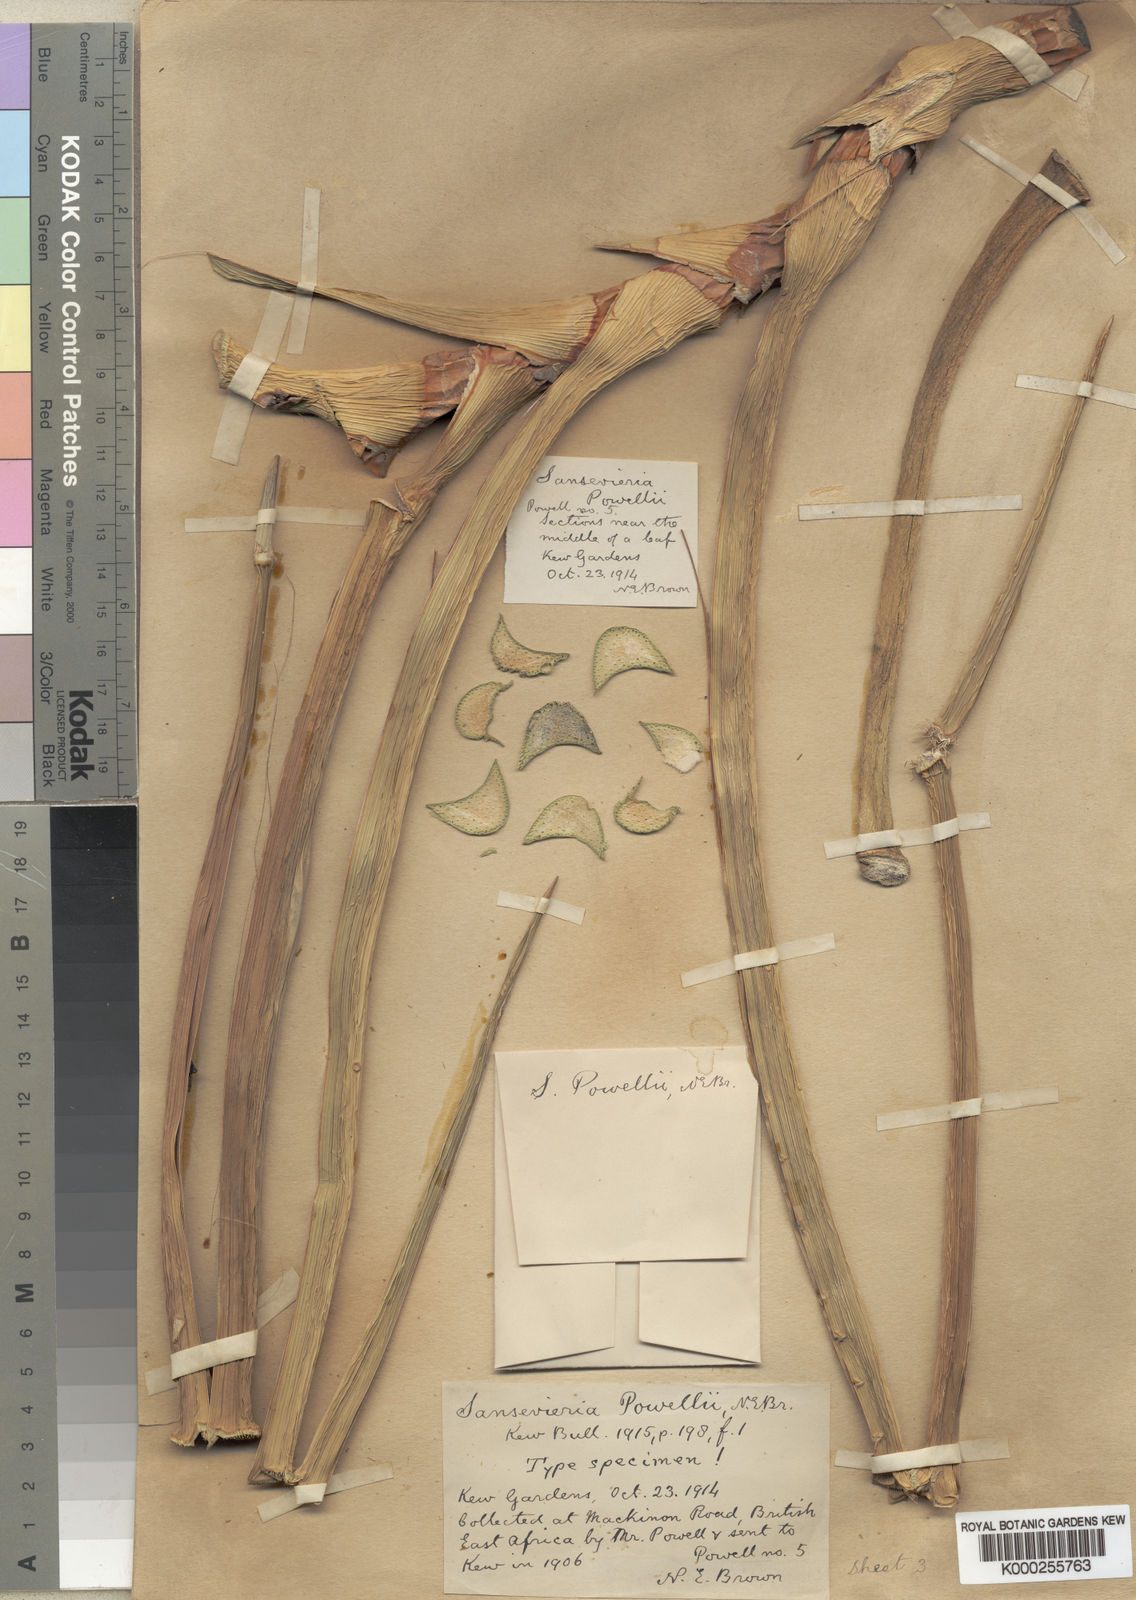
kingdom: Plantae
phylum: Tracheophyta
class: Liliopsida
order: Asparagales
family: Asparagaceae
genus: Dracaena
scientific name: Dracaena powellii
